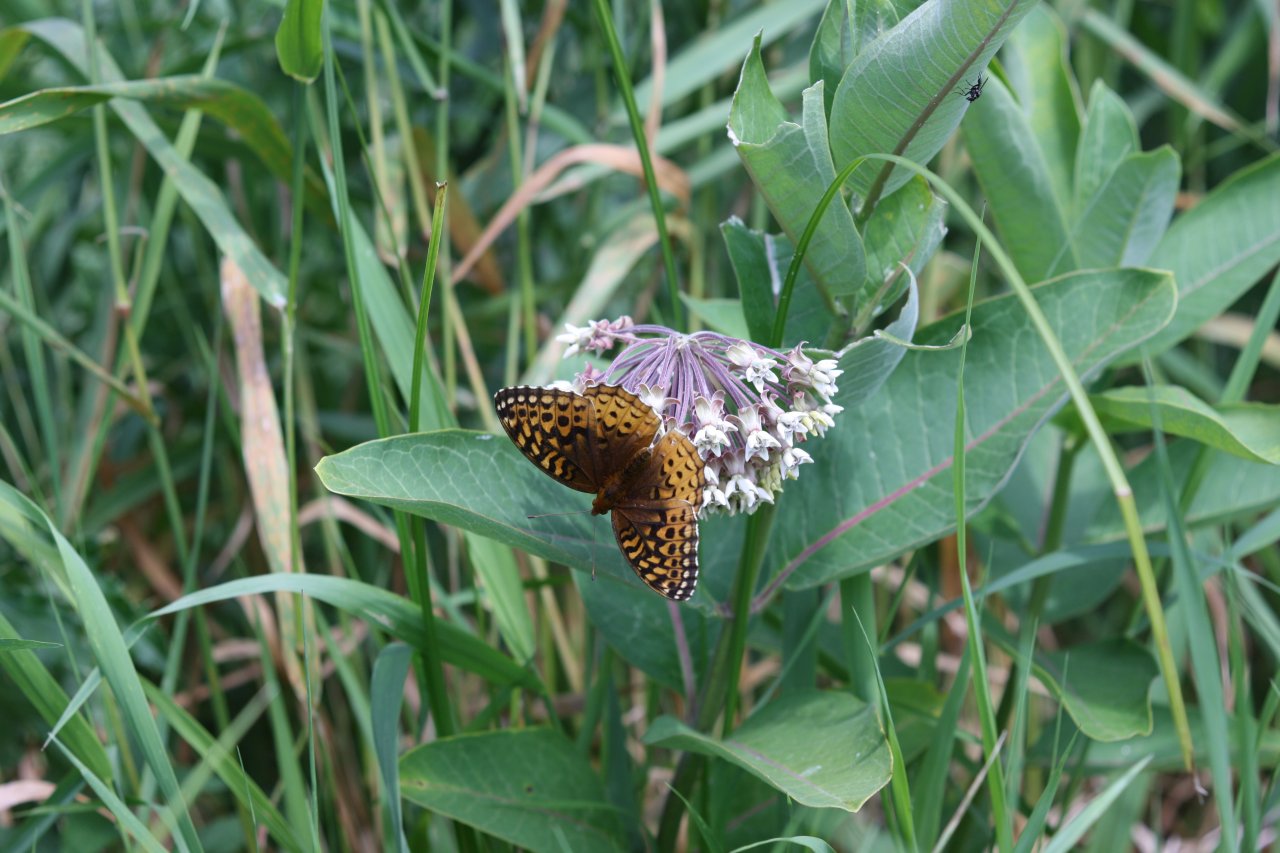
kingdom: Animalia
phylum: Arthropoda
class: Insecta
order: Lepidoptera
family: Nymphalidae
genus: Speyeria
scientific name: Speyeria cybele
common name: Great Spangled Fritillary
